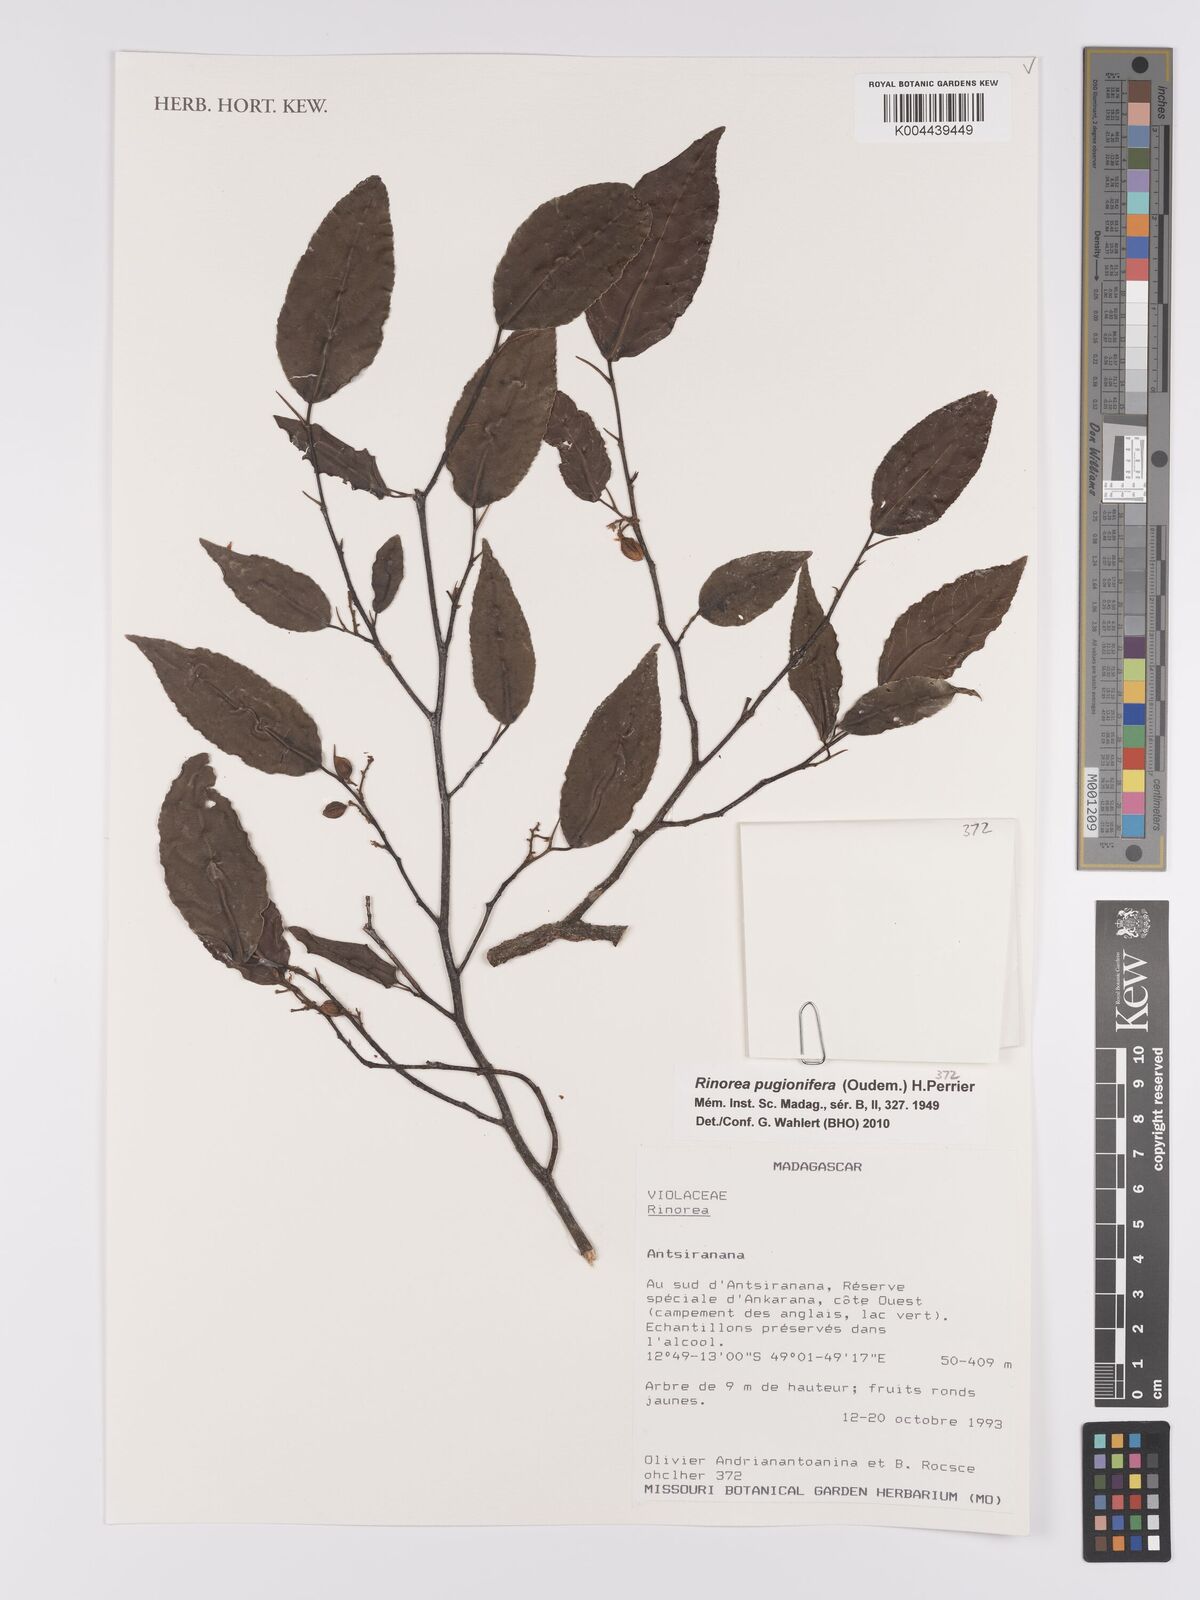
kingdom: Plantae
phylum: Tracheophyta
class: Magnoliopsida
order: Malpighiales
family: Violaceae
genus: Rinorea
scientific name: Rinorea pugionifera
